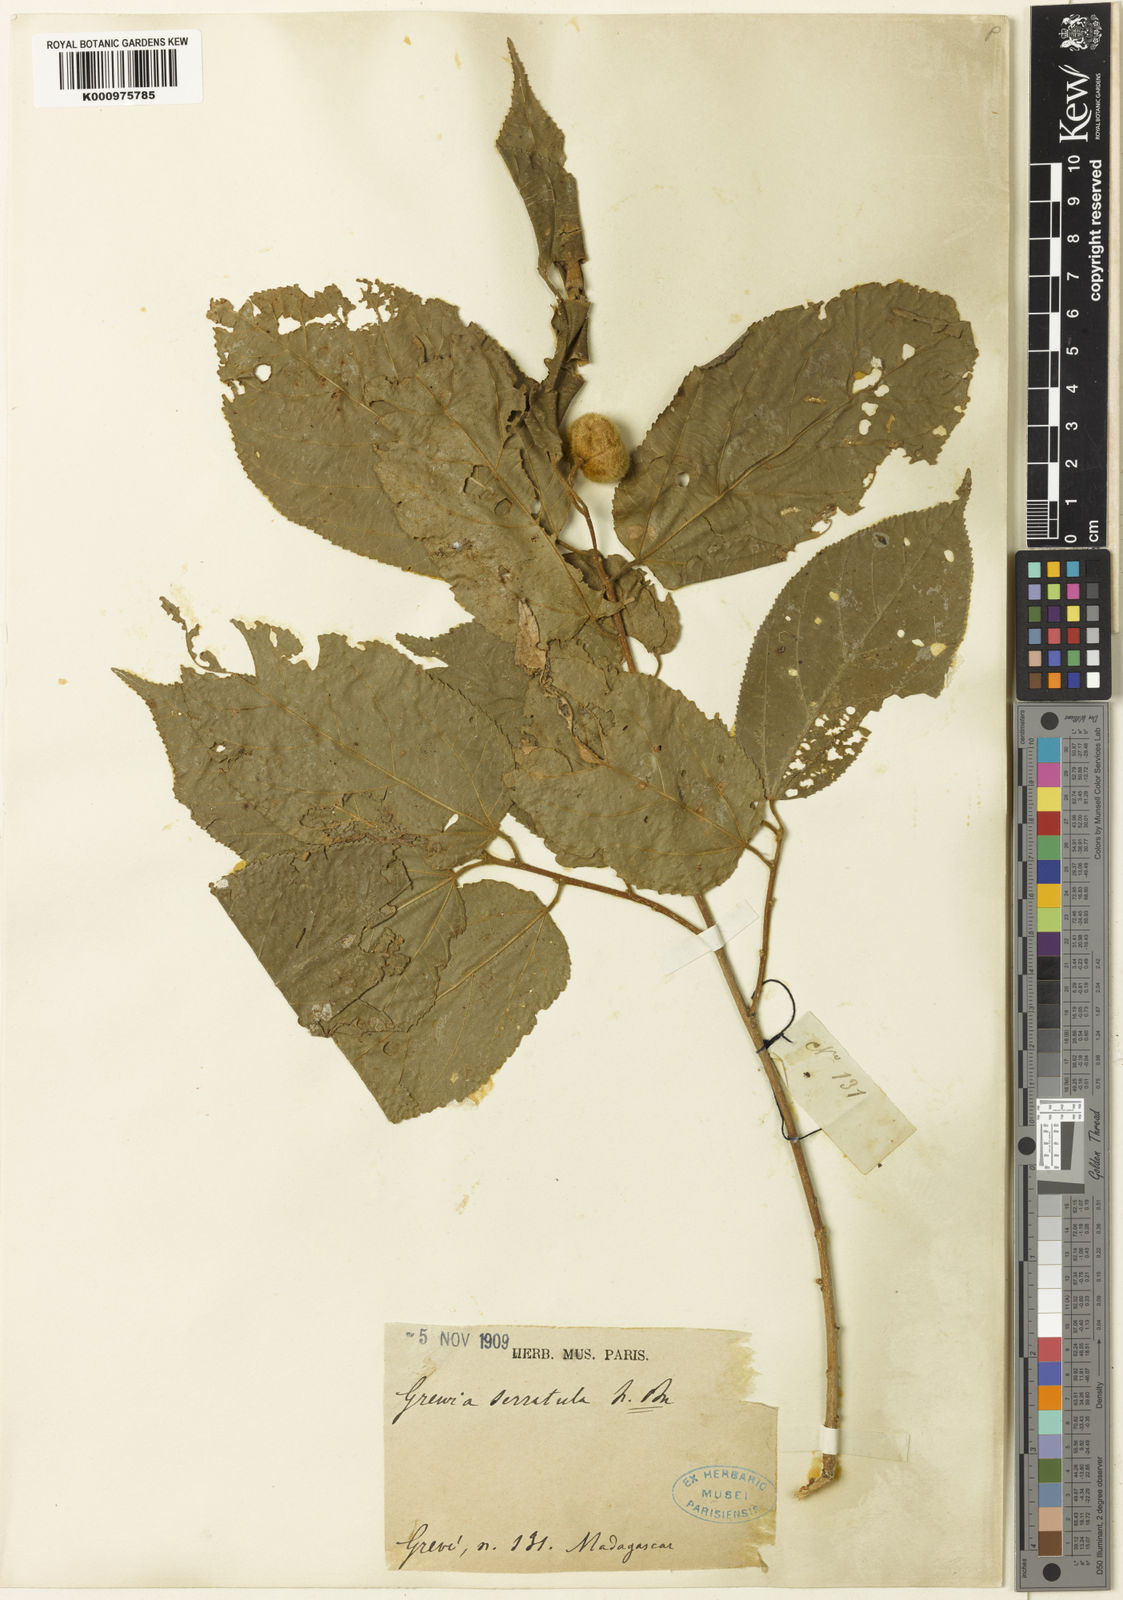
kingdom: Plantae
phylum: Tracheophyta
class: Magnoliopsida
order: Malvales
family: Malvaceae
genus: Grewia
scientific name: Grewia glandulosa
